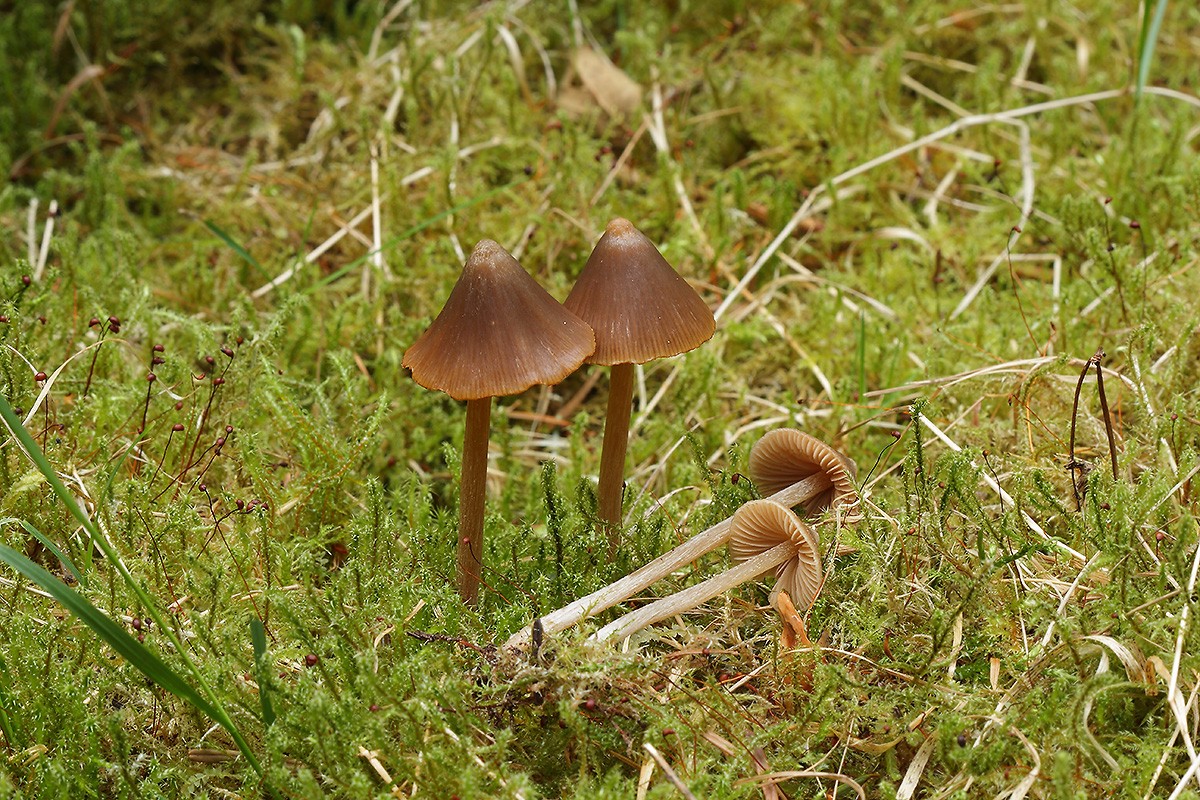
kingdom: Fungi
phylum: Basidiomycota
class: Agaricomycetes
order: Agaricales
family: Entolomataceae
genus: Entoloma
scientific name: Entoloma vernum
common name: vår-rødblad
